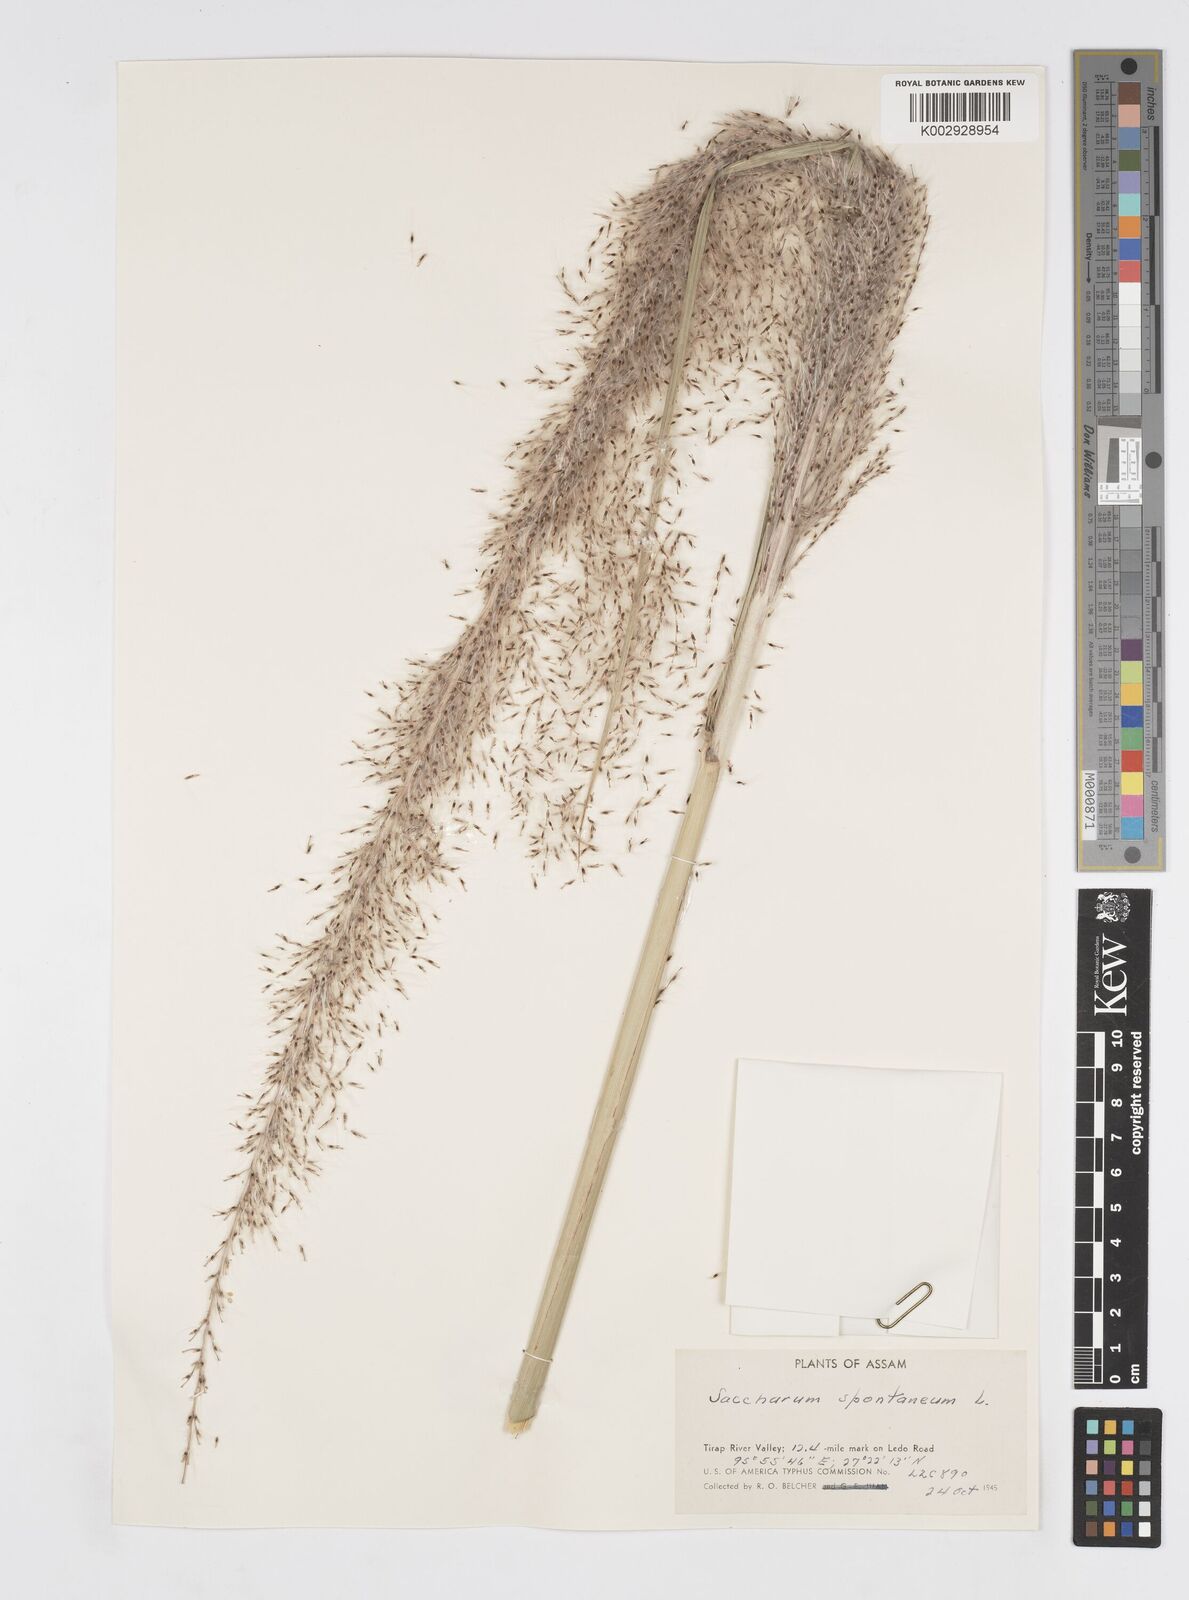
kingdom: Plantae
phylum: Tracheophyta
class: Liliopsida
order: Poales
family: Poaceae
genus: Saccharum
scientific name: Saccharum spontaneum
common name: Wild sugarcane
